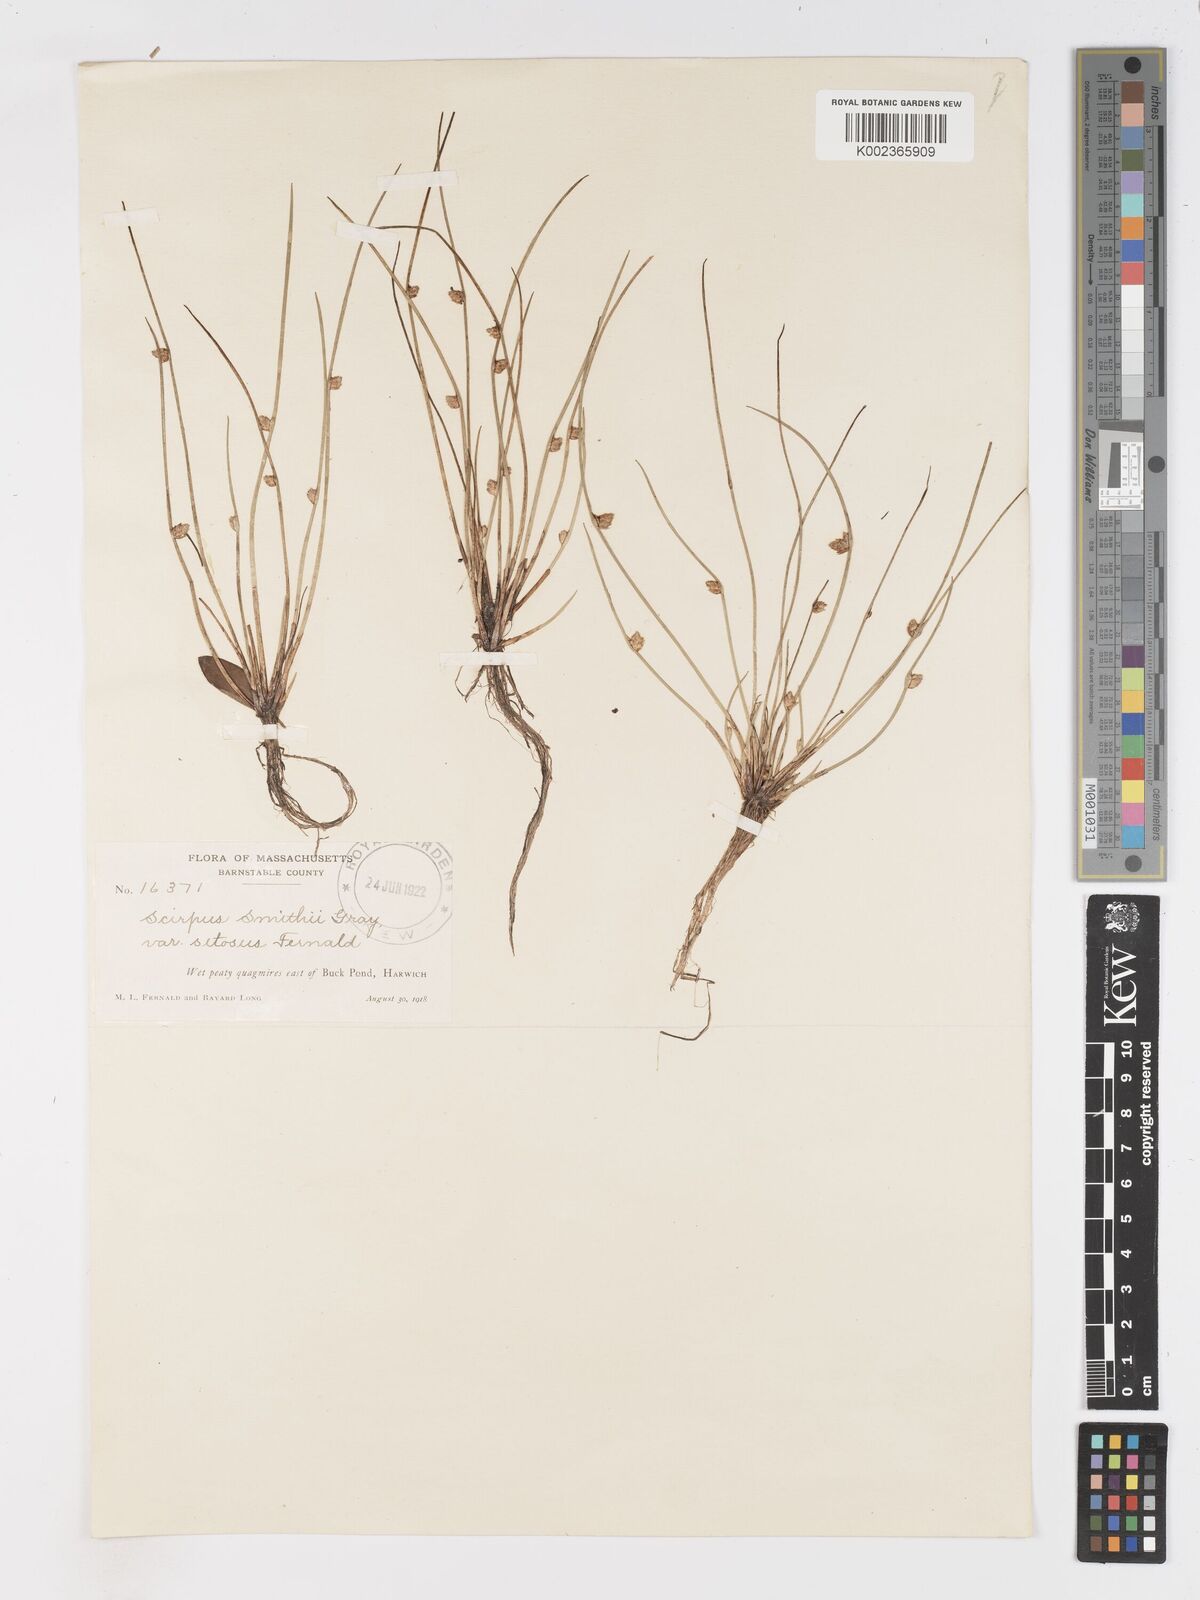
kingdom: Plantae
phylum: Tracheophyta
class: Liliopsida
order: Poales
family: Cyperaceae
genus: Schoenoplectiella
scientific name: Schoenoplectiella smithii
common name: Smith's bulrush
